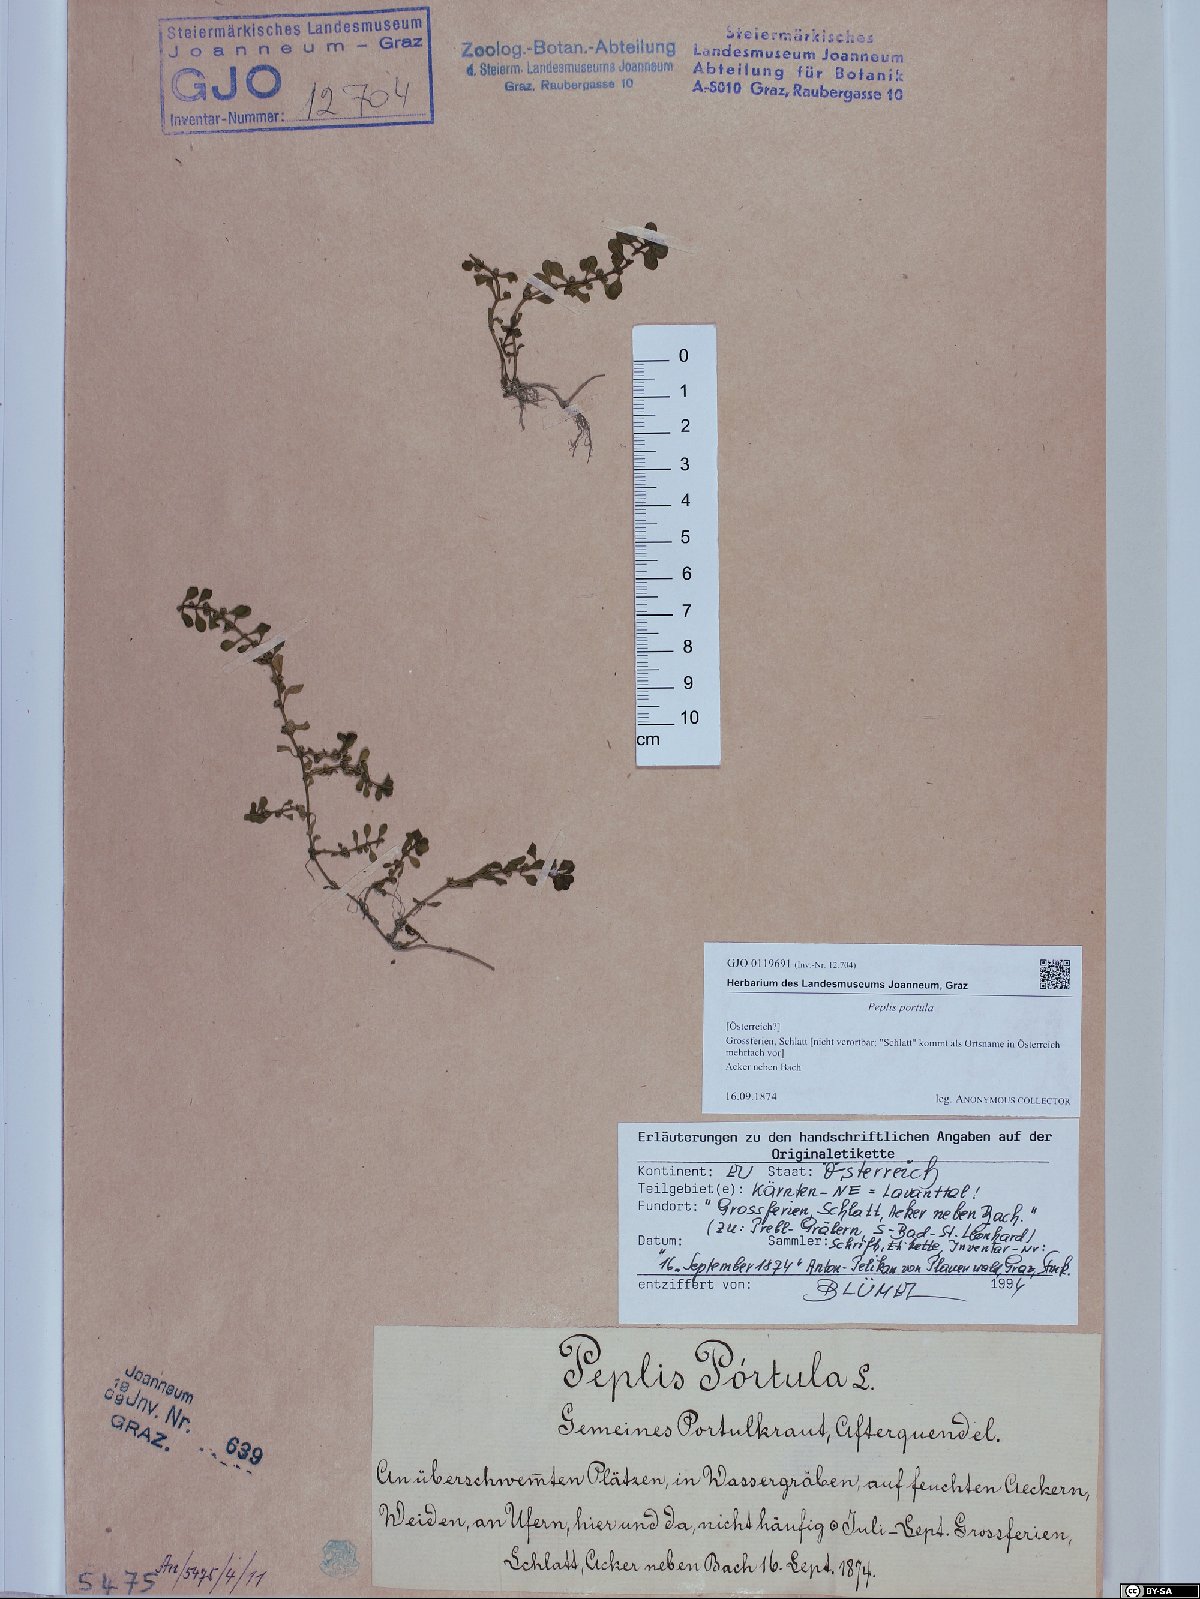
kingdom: Plantae
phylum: Tracheophyta
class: Magnoliopsida
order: Myrtales
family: Lythraceae
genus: Lythrum
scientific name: Lythrum portula
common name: Water purslane
